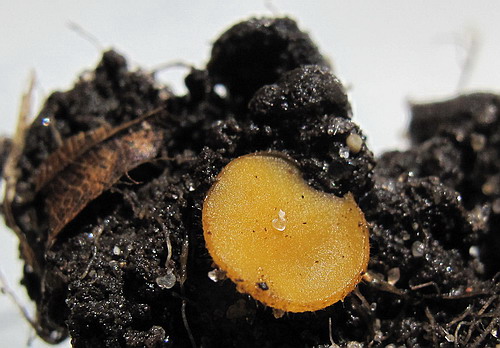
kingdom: Fungi
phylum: Ascomycota
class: Pezizomycetes
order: Pezizales
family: Pyronemataceae
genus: Cheilymenia
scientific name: Cheilymenia vitellina
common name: æggegul hårbæger
